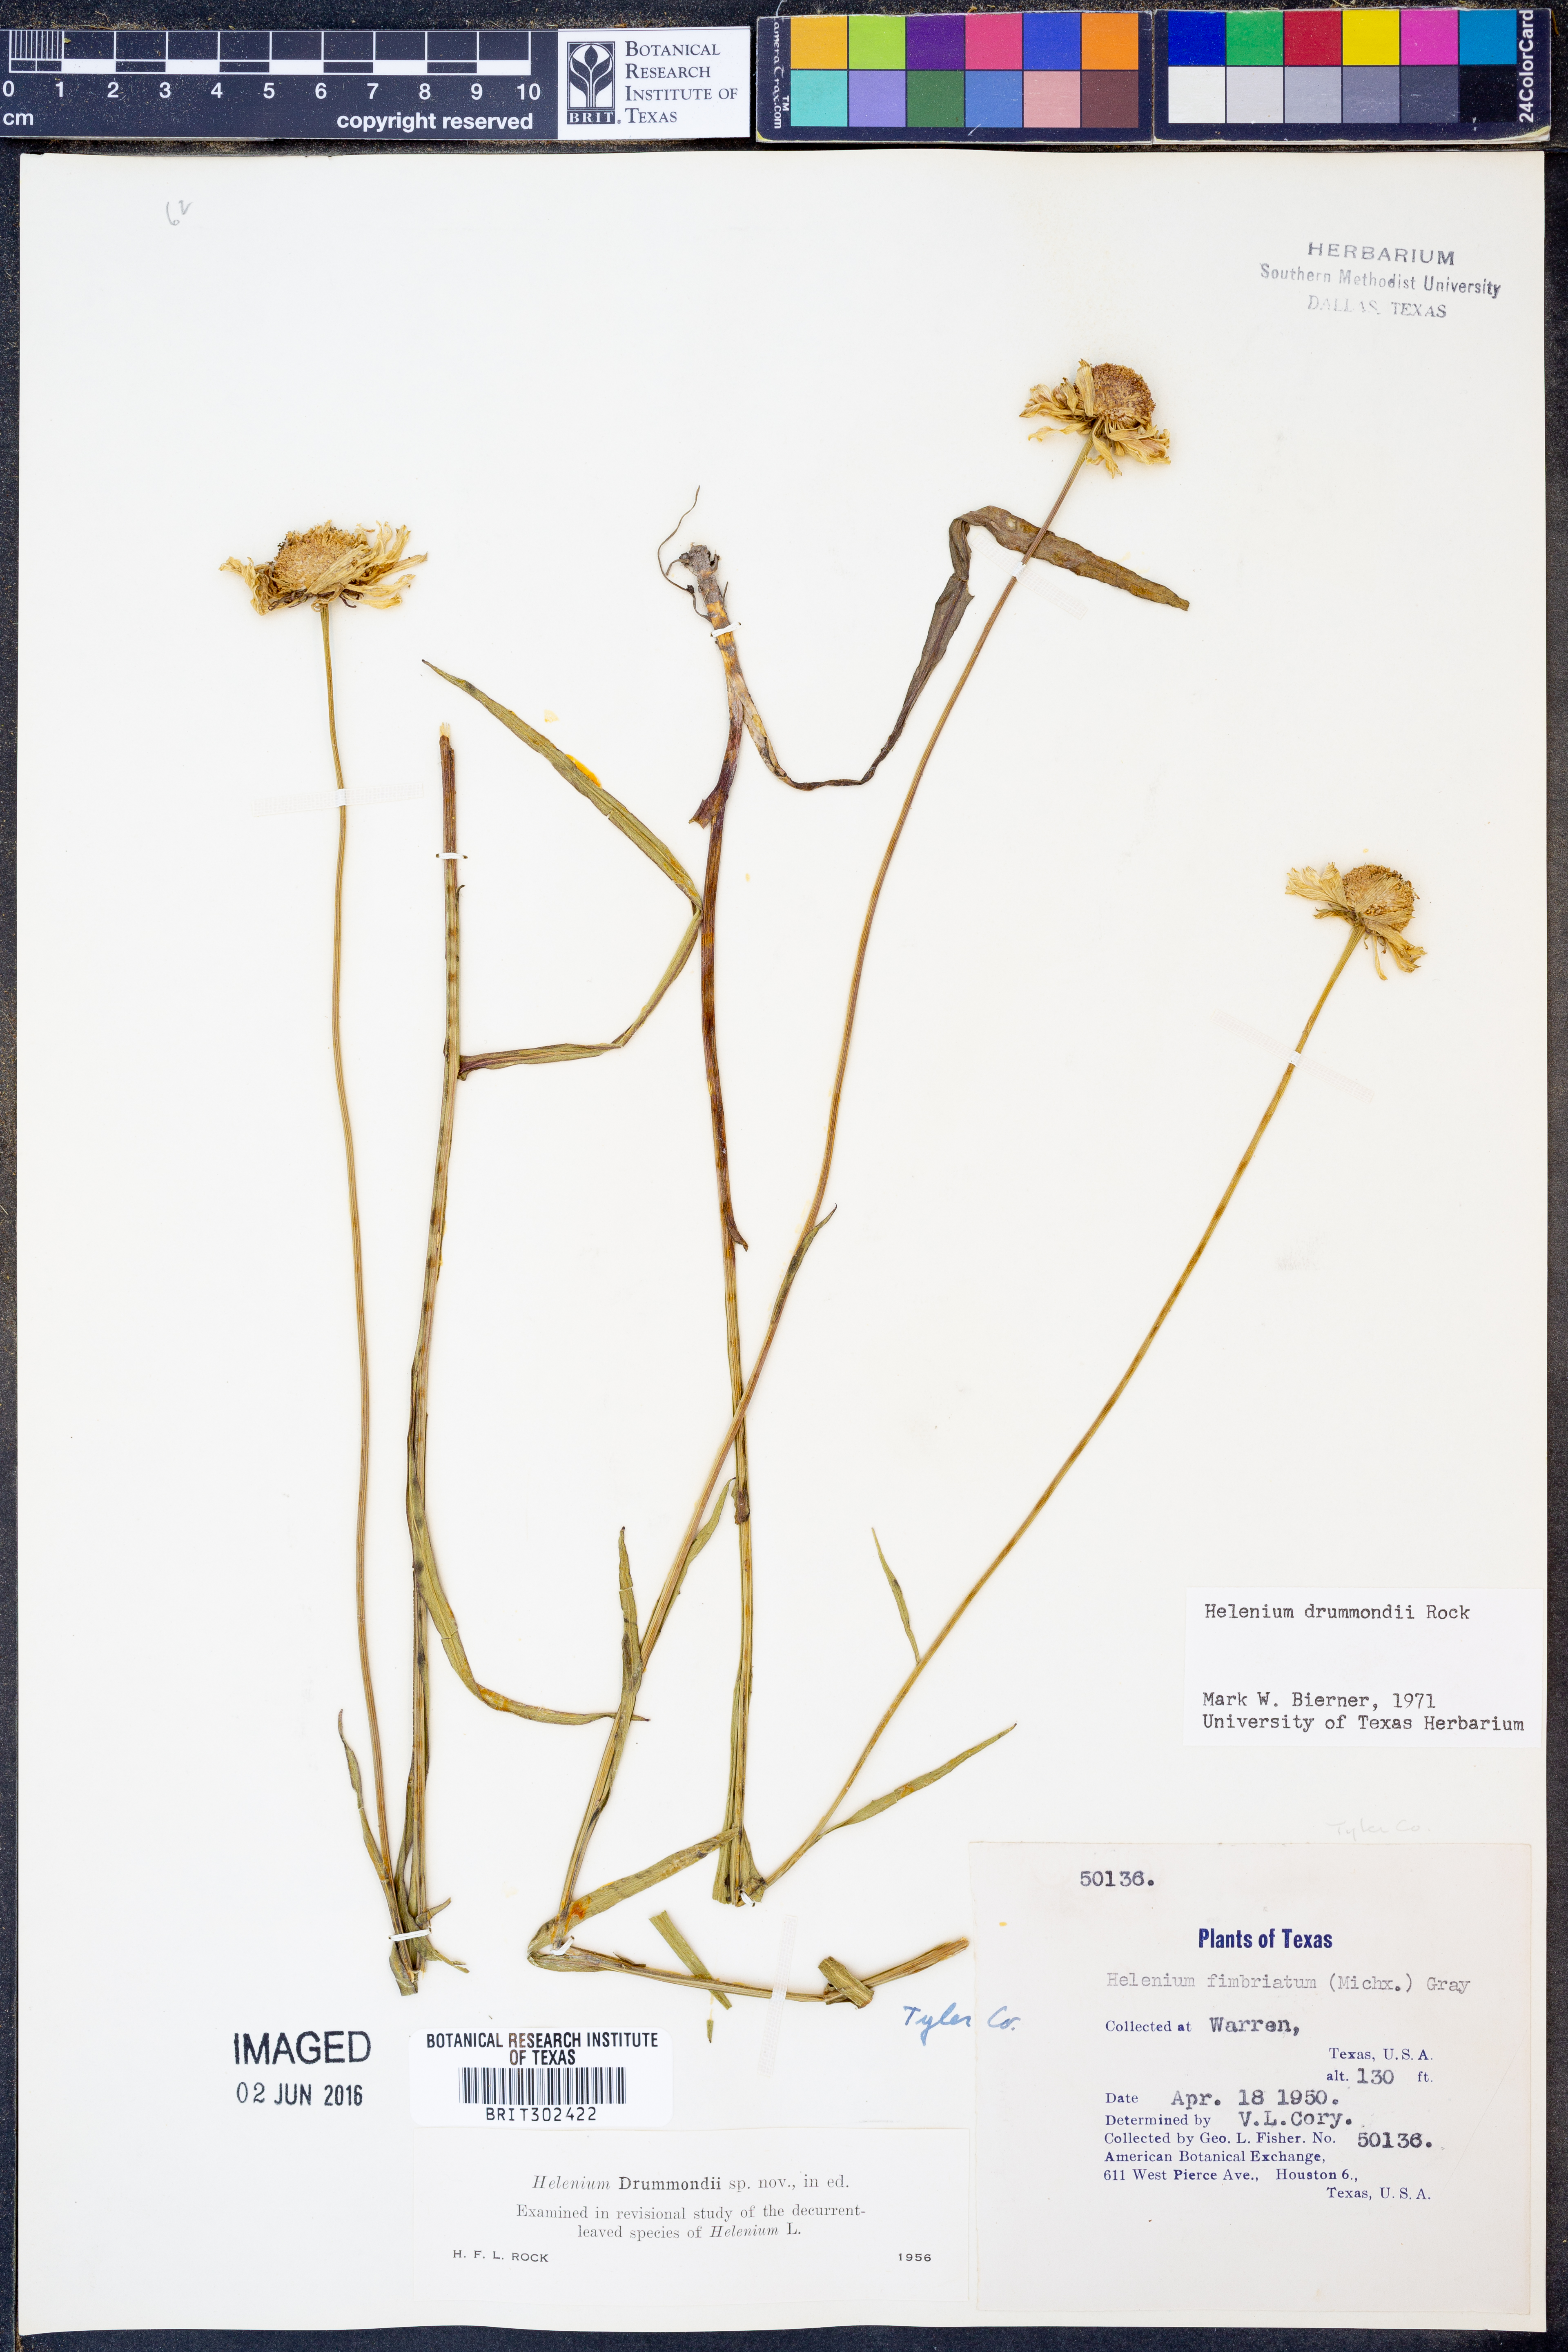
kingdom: Plantae
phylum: Tracheophyta
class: Magnoliopsida
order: Asterales
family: Asteraceae
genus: Helenium
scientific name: Helenium drummondii
